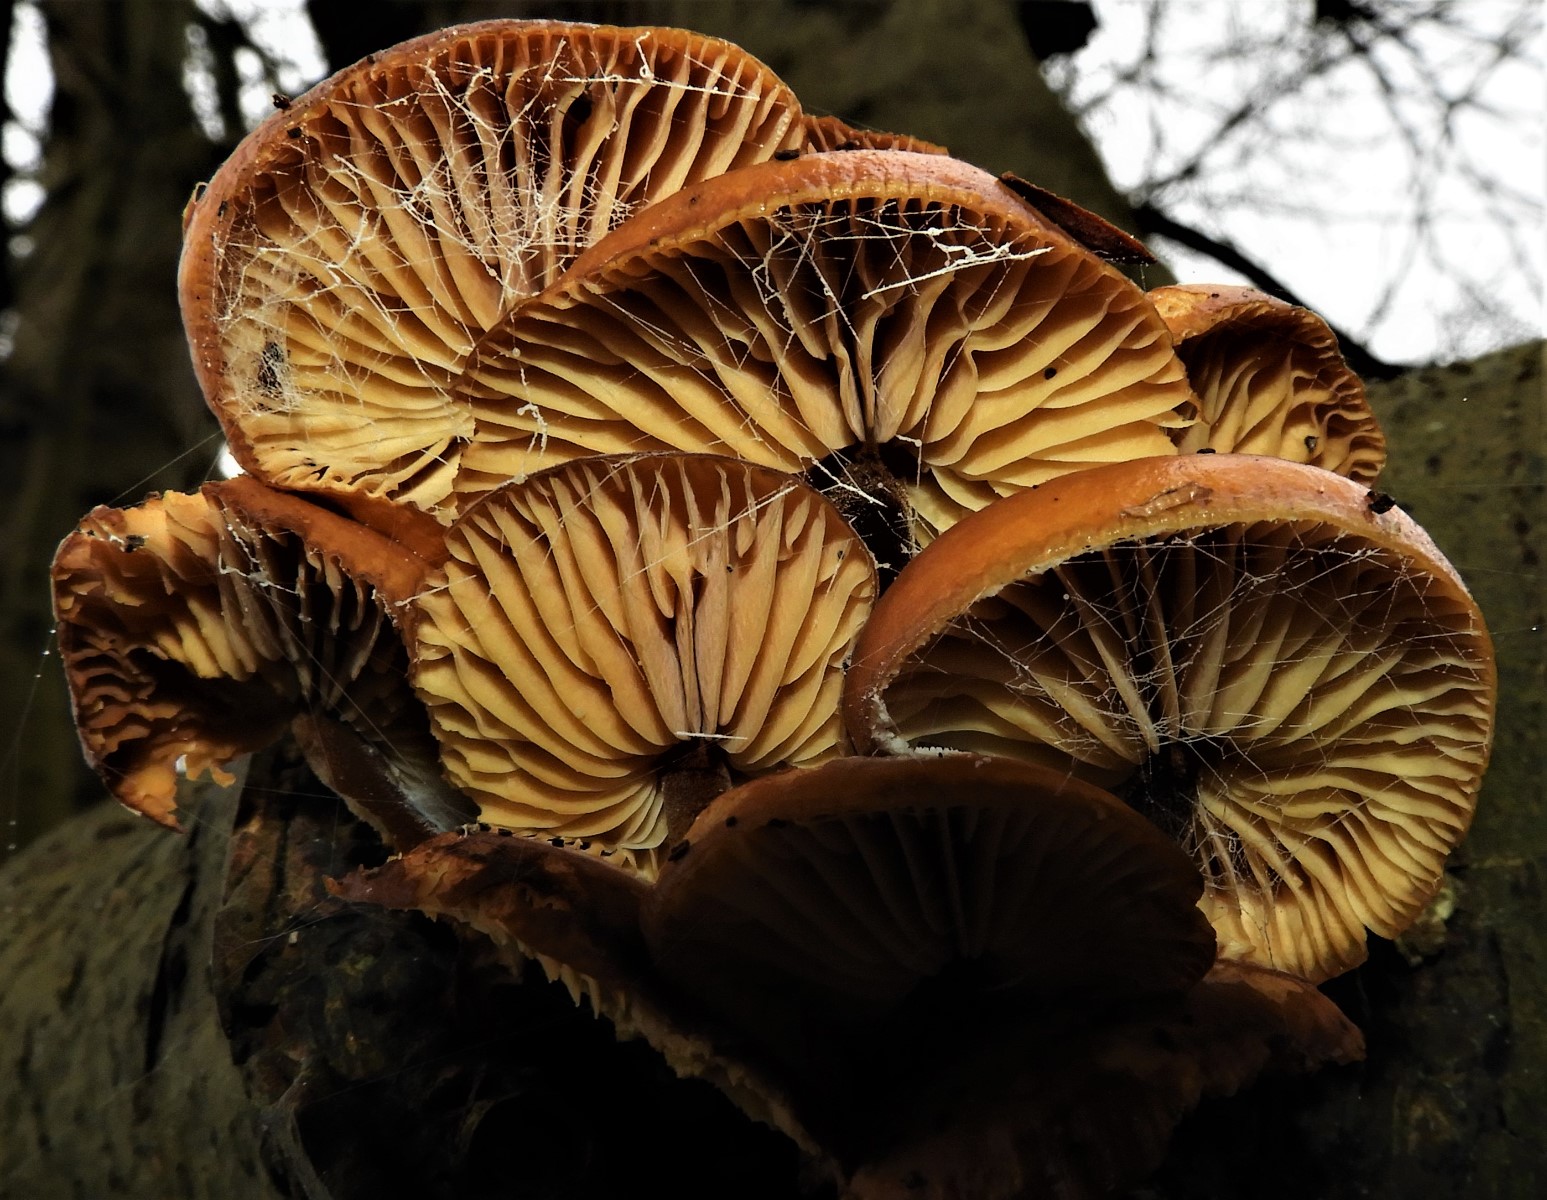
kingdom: Fungi
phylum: Basidiomycota
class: Agaricomycetes
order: Agaricales
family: Physalacriaceae
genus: Flammulina
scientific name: Flammulina velutipes
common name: gul fløjlsfod
